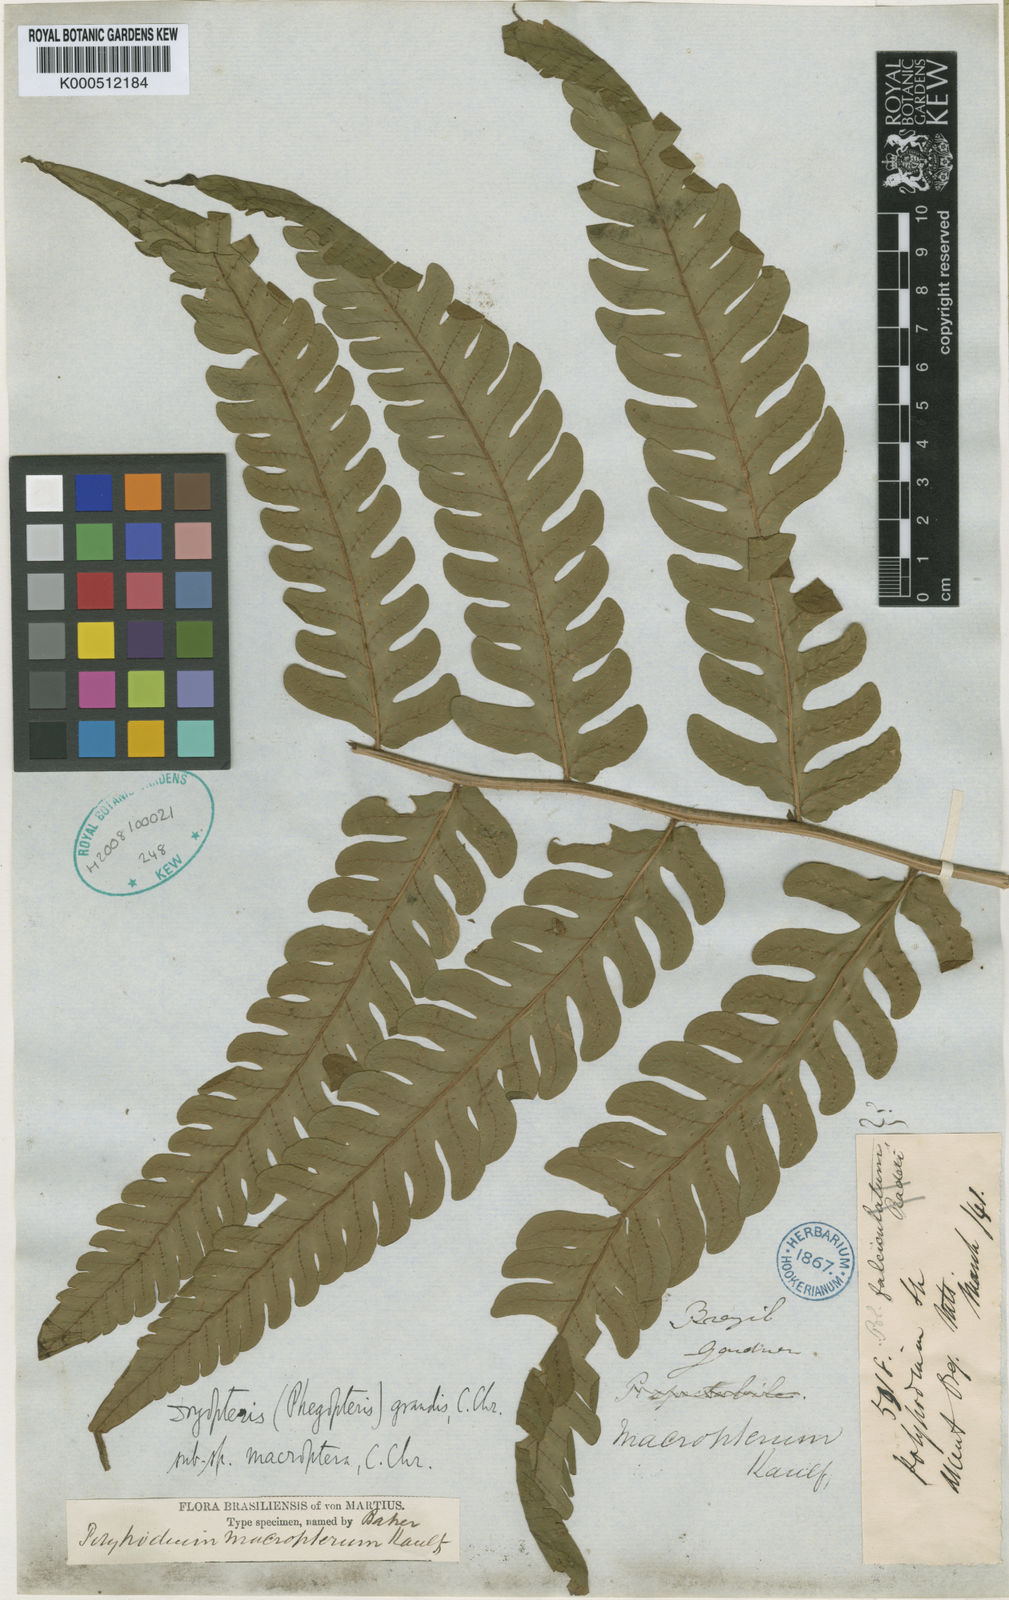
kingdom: Plantae
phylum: Tracheophyta
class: Polypodiopsida
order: Polypodiales
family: Dryopteridaceae
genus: Megalastrum
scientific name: Megalastrum grande
